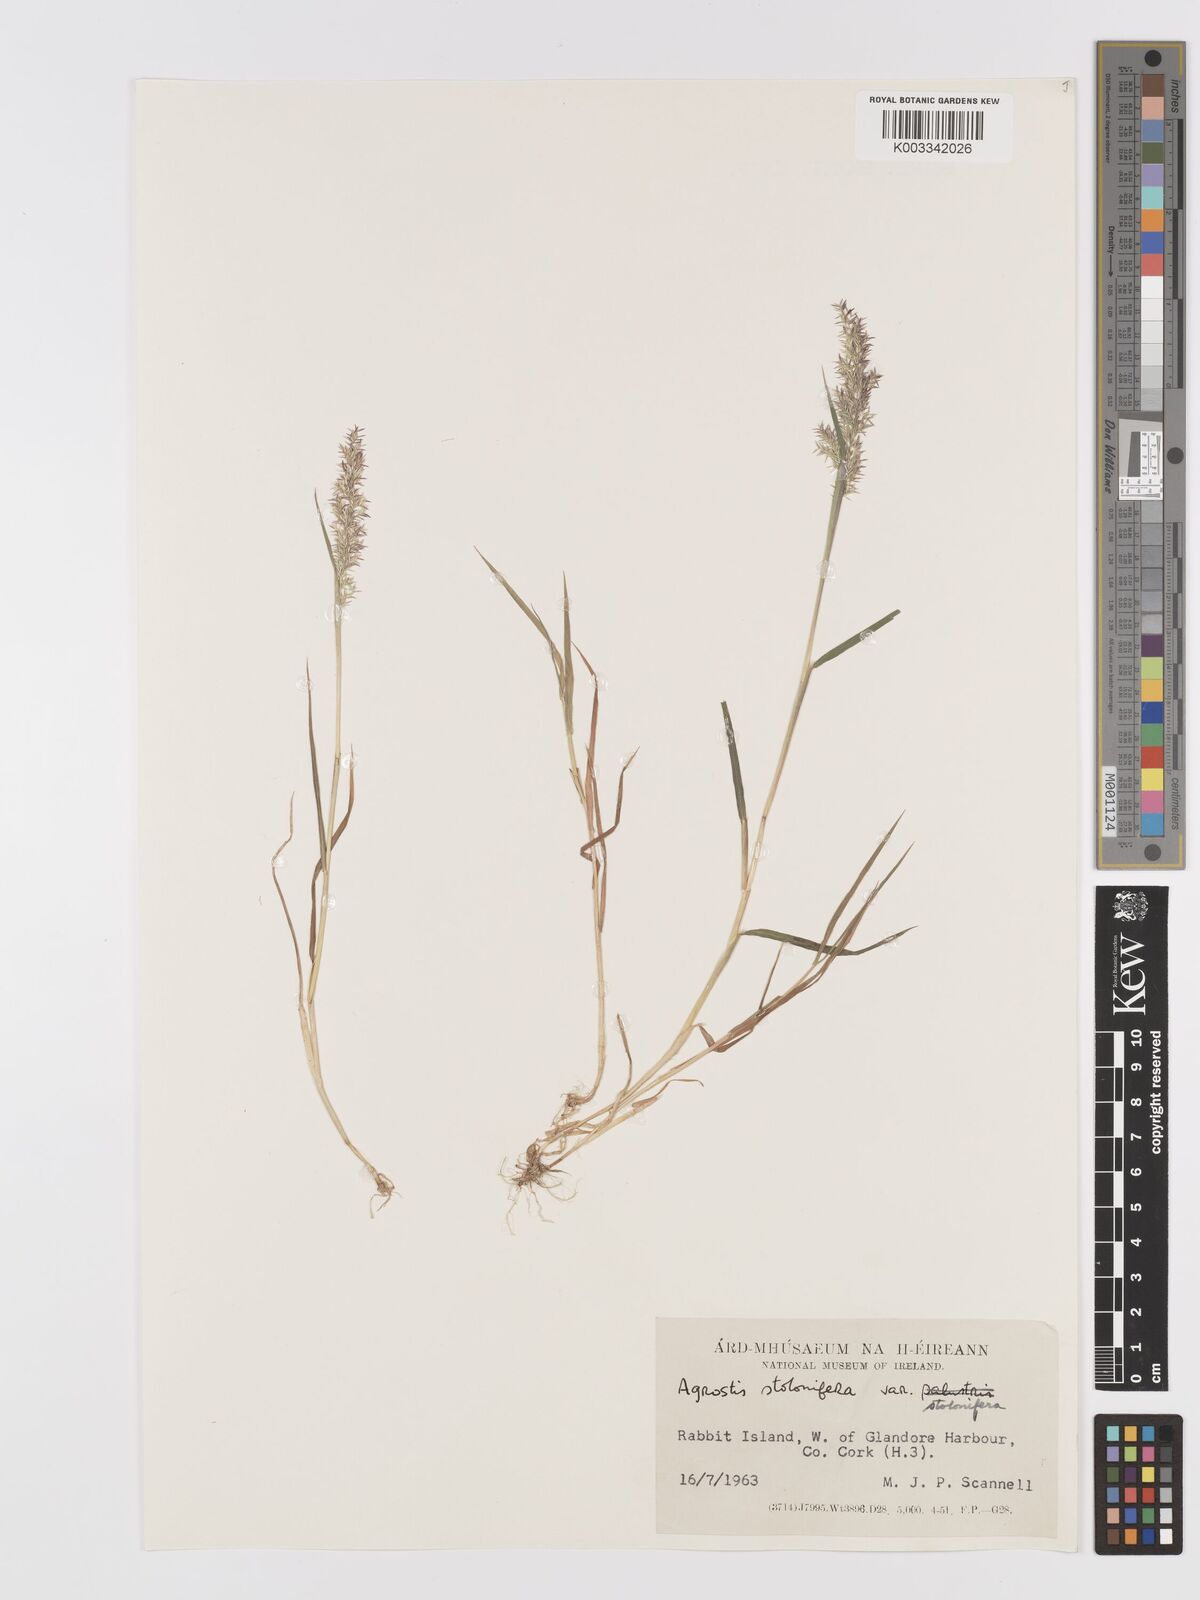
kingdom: Plantae
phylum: Tracheophyta
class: Liliopsida
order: Poales
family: Poaceae
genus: Agrostis
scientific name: Agrostis stolonifera
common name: Creeping bentgrass
